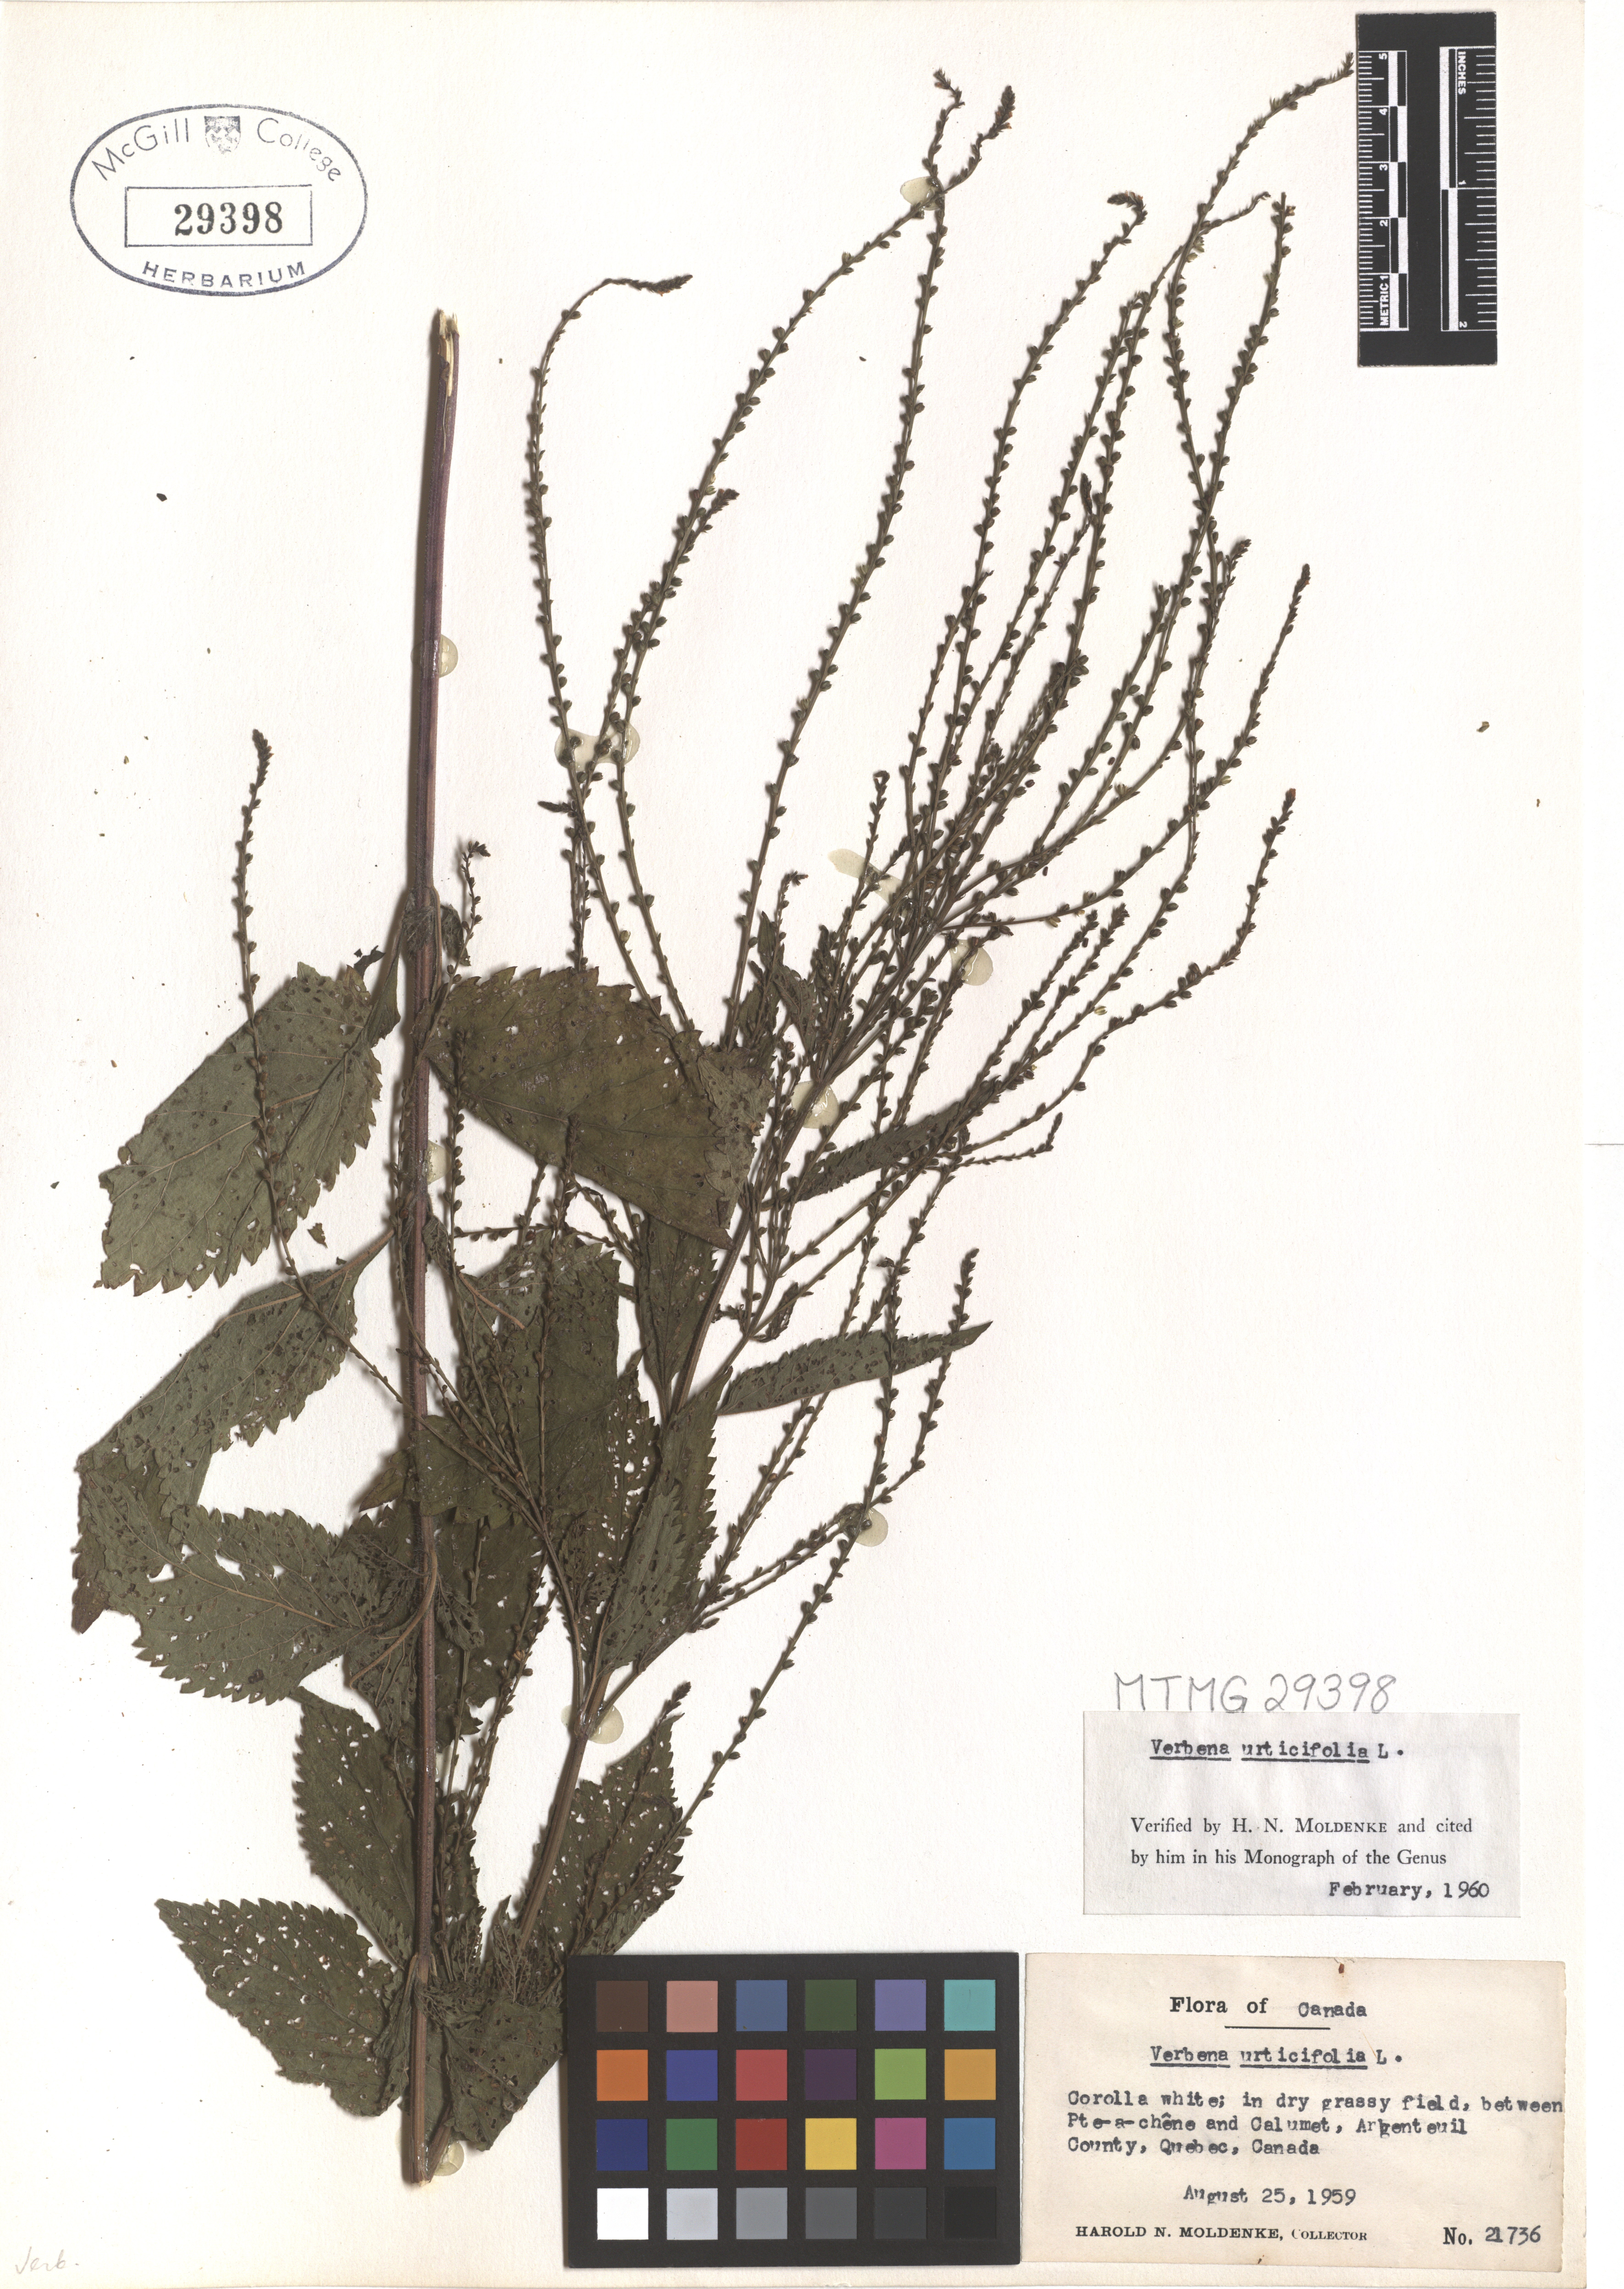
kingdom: Plantae
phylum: Tracheophyta
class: Magnoliopsida
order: Lamiales
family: Verbenaceae
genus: Verbena
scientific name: Verbena urticifolia
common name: Nettle-leaved vervain
